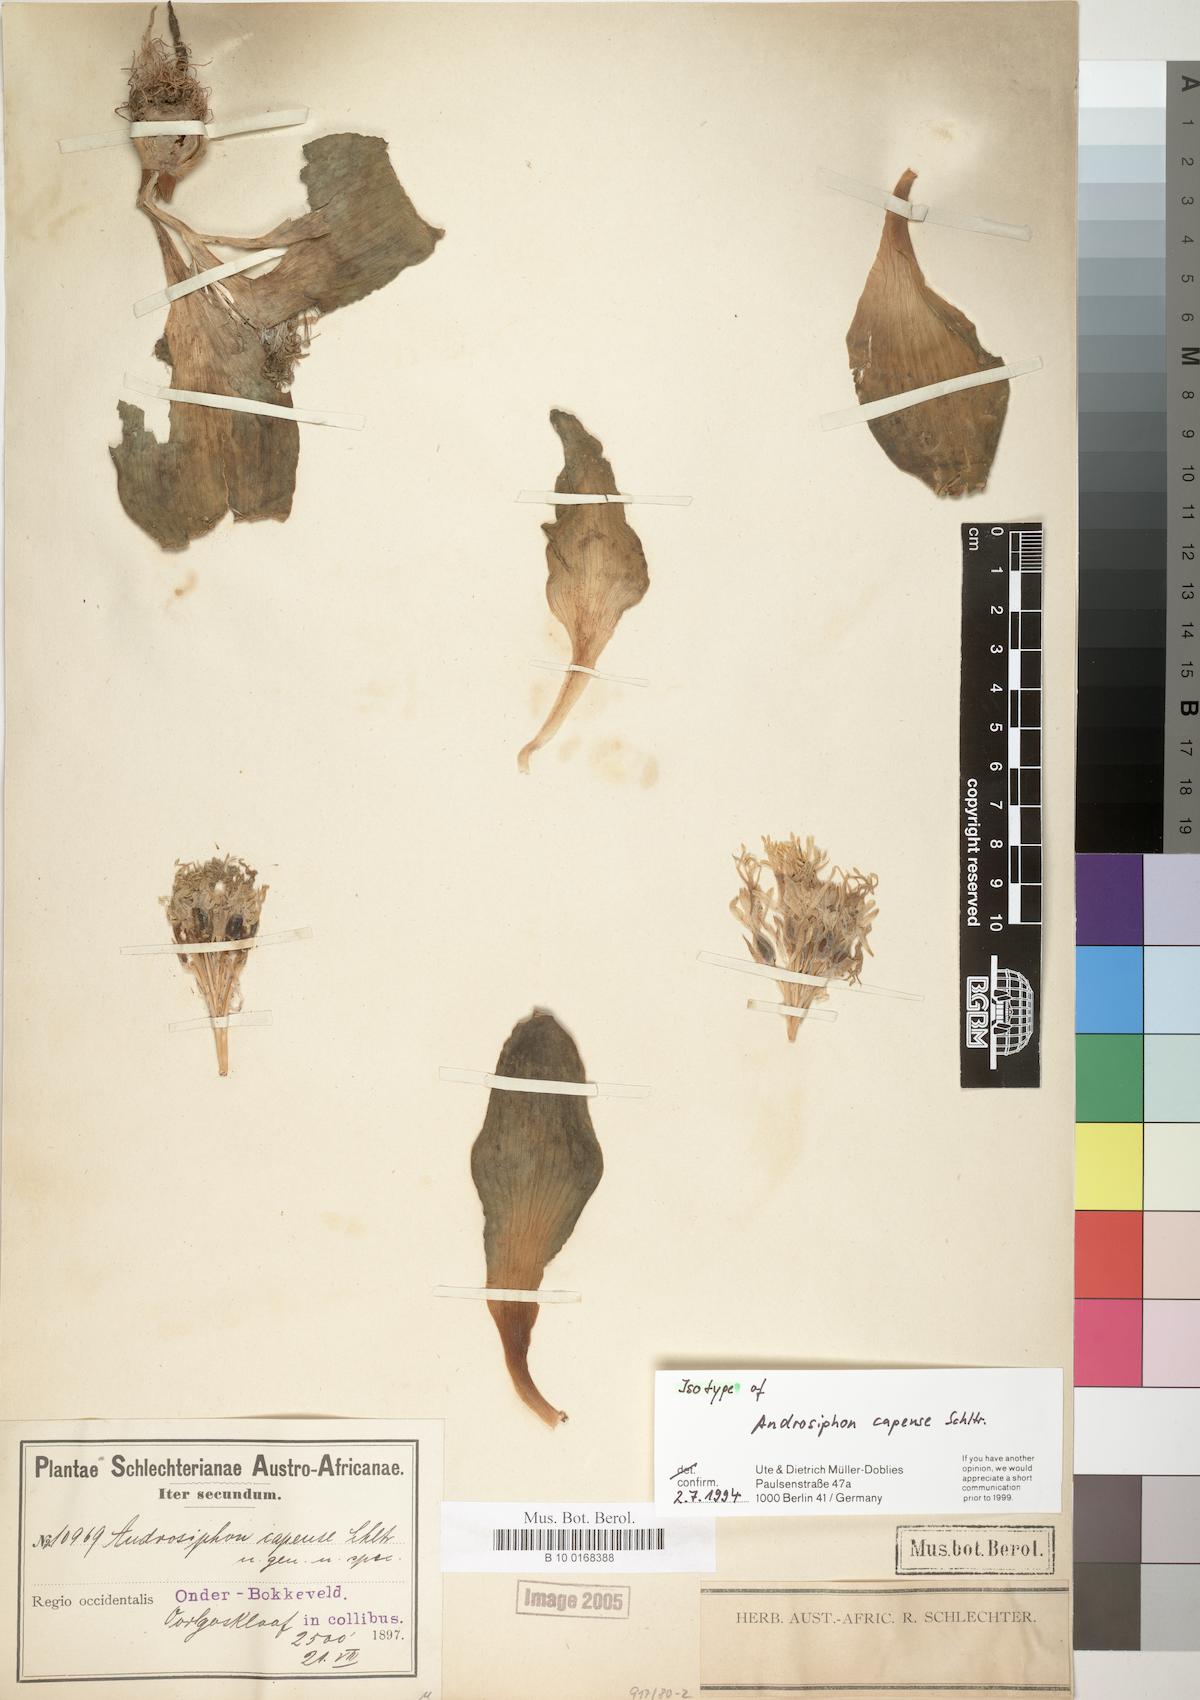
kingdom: Plantae
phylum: Tracheophyta
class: Liliopsida
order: Asparagales
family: Asparagaceae
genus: Daubenya
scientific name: Daubenya capensis
